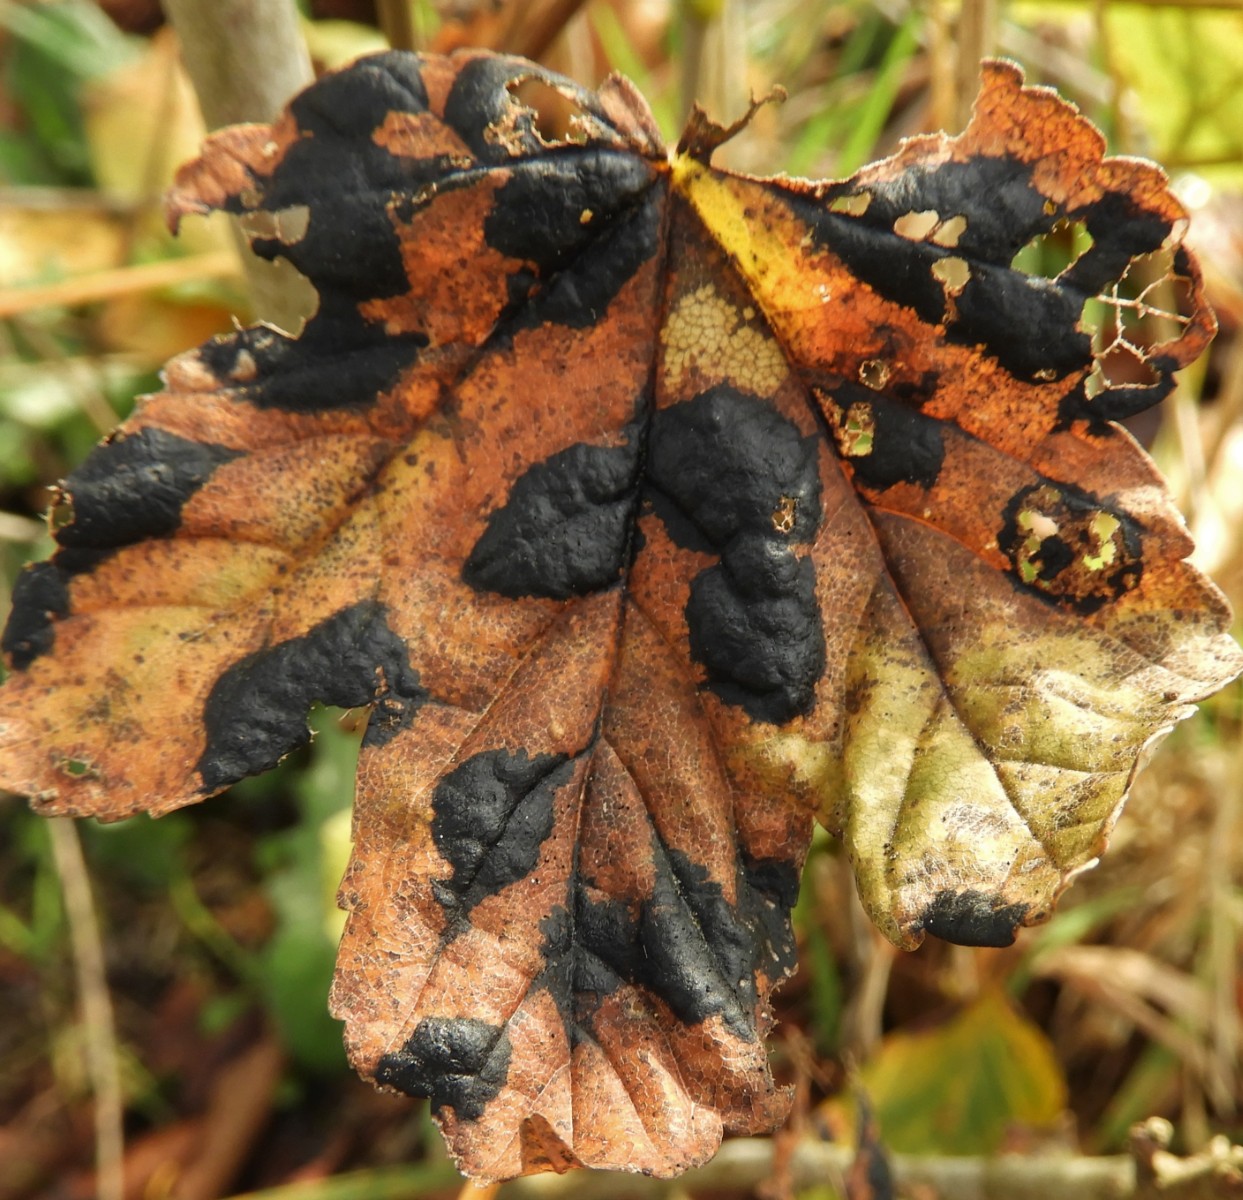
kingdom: Fungi
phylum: Ascomycota
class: Leotiomycetes
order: Rhytismatales
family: Rhytismataceae
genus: Rhytisma
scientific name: Rhytisma acerinum
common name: ahorn-rynkeplet
